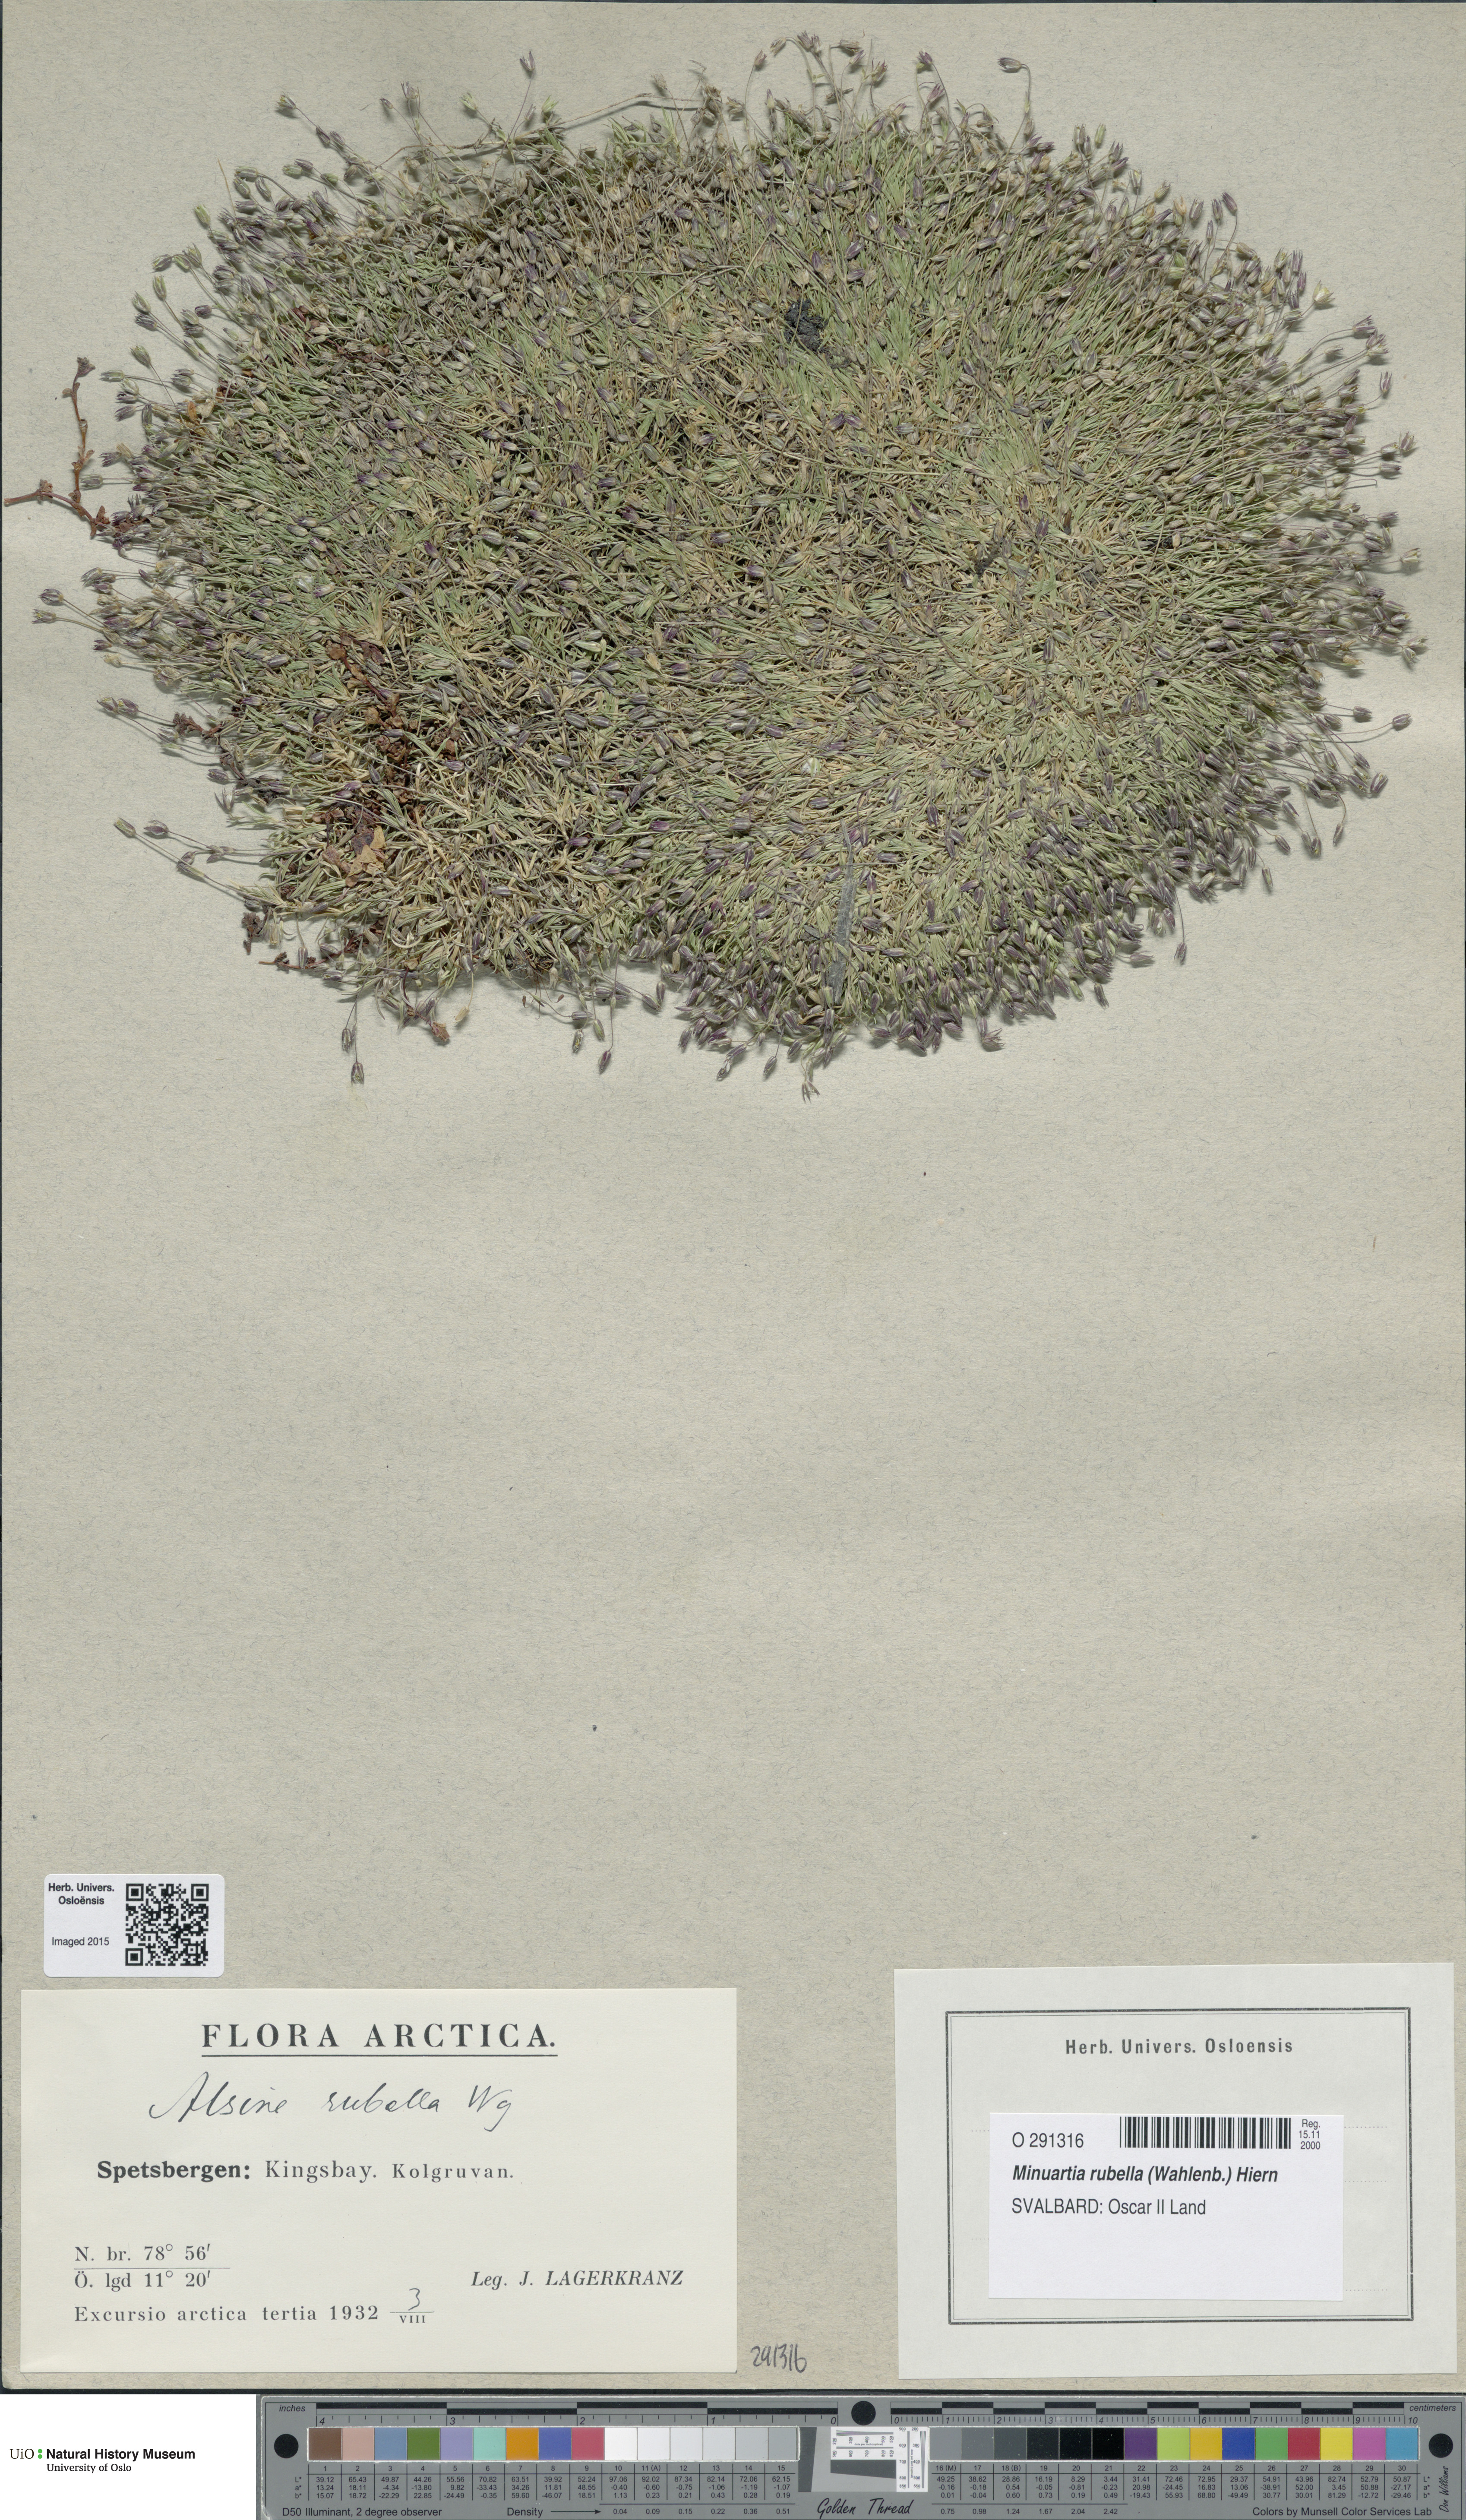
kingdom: Plantae
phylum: Tracheophyta
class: Magnoliopsida
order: Caryophyllales
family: Caryophyllaceae
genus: Sabulina
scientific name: Sabulina rubella
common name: Beautiful sandwort
